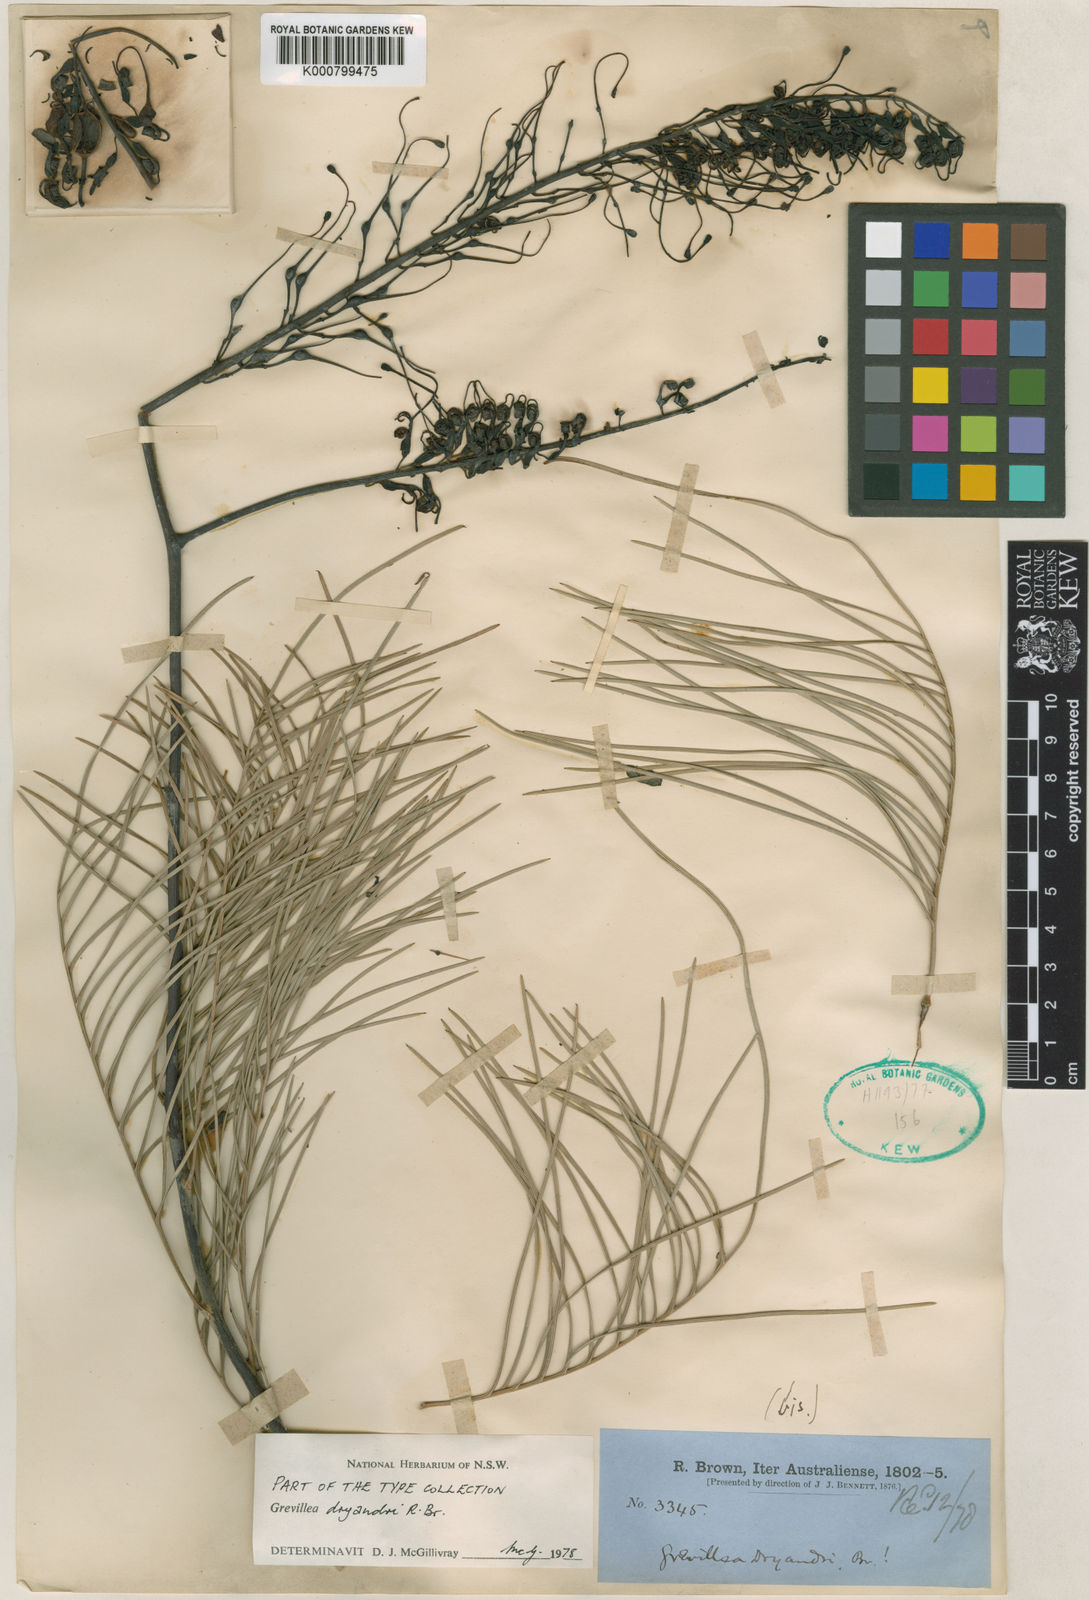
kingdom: Plantae
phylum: Tracheophyta
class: Magnoliopsida
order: Proteales
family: Proteaceae
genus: Grevillea
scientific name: Grevillea dryandri
